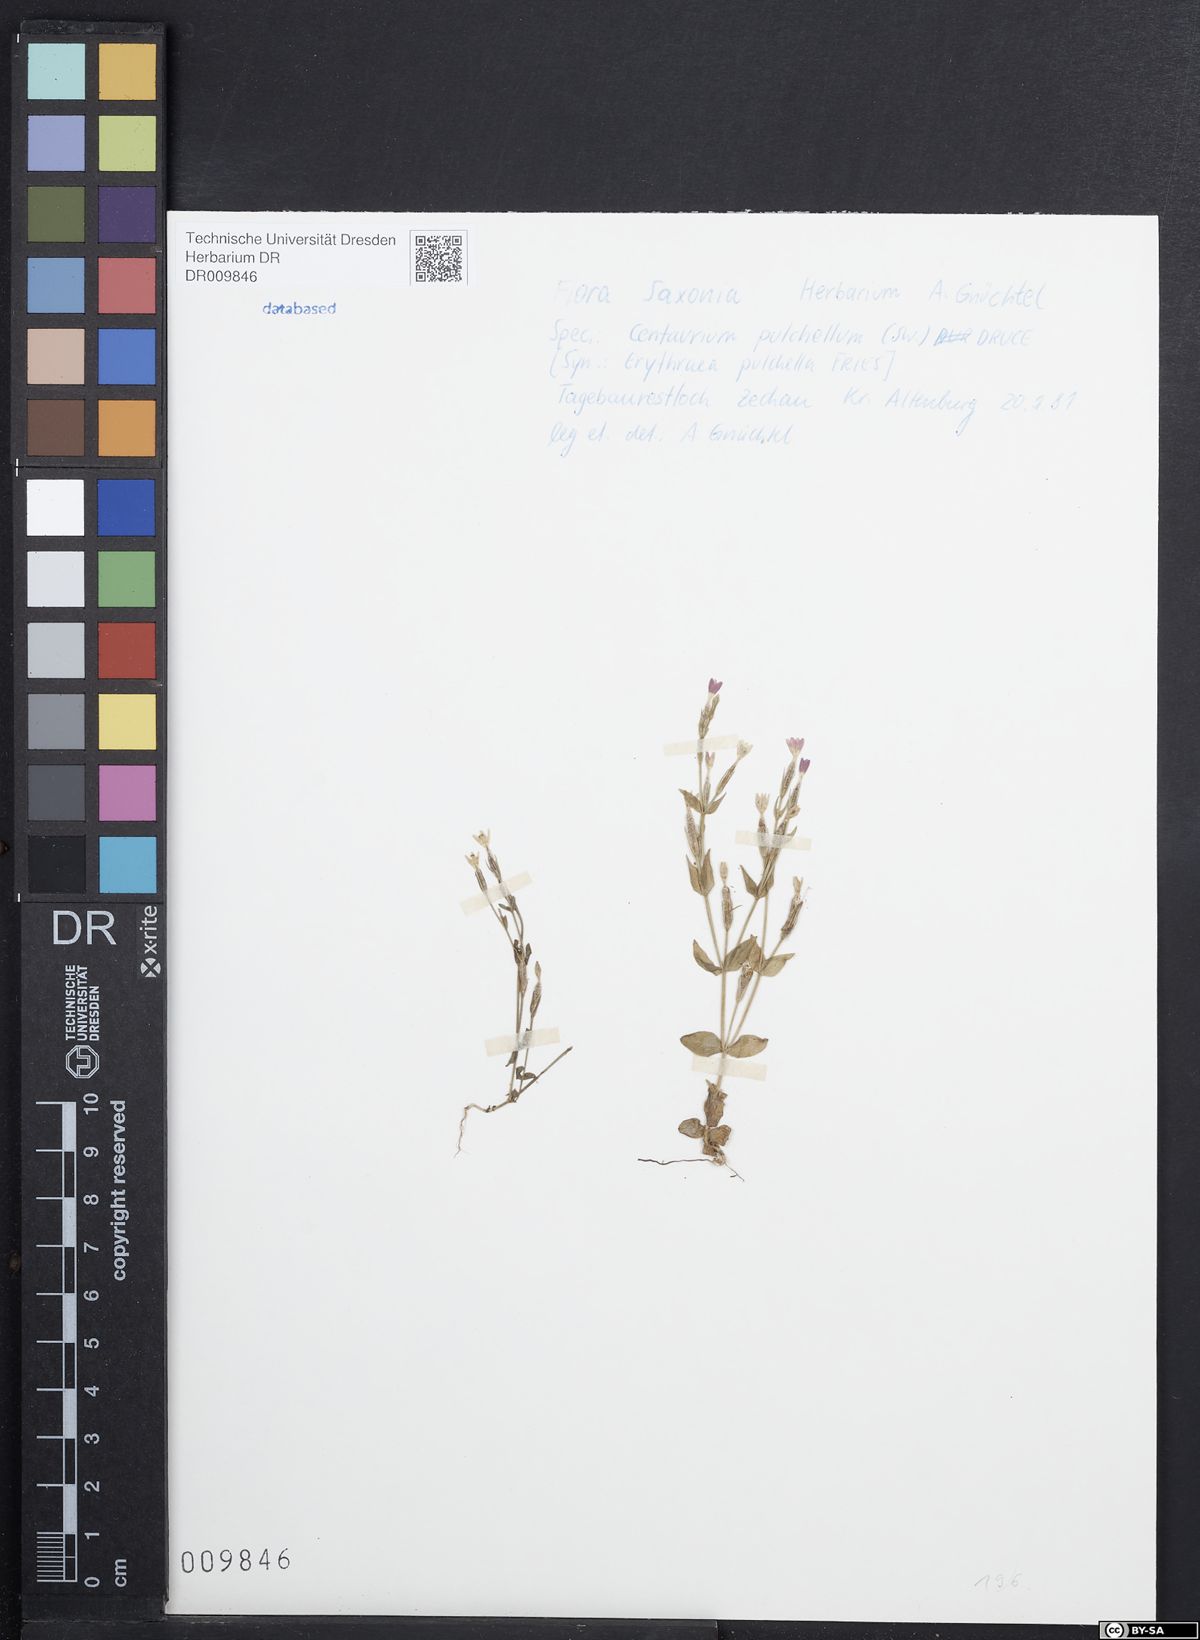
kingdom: Plantae
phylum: Tracheophyta
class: Magnoliopsida
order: Gentianales
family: Gentianaceae
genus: Centaurium
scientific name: Centaurium pulchellum
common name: Lesser centaury
